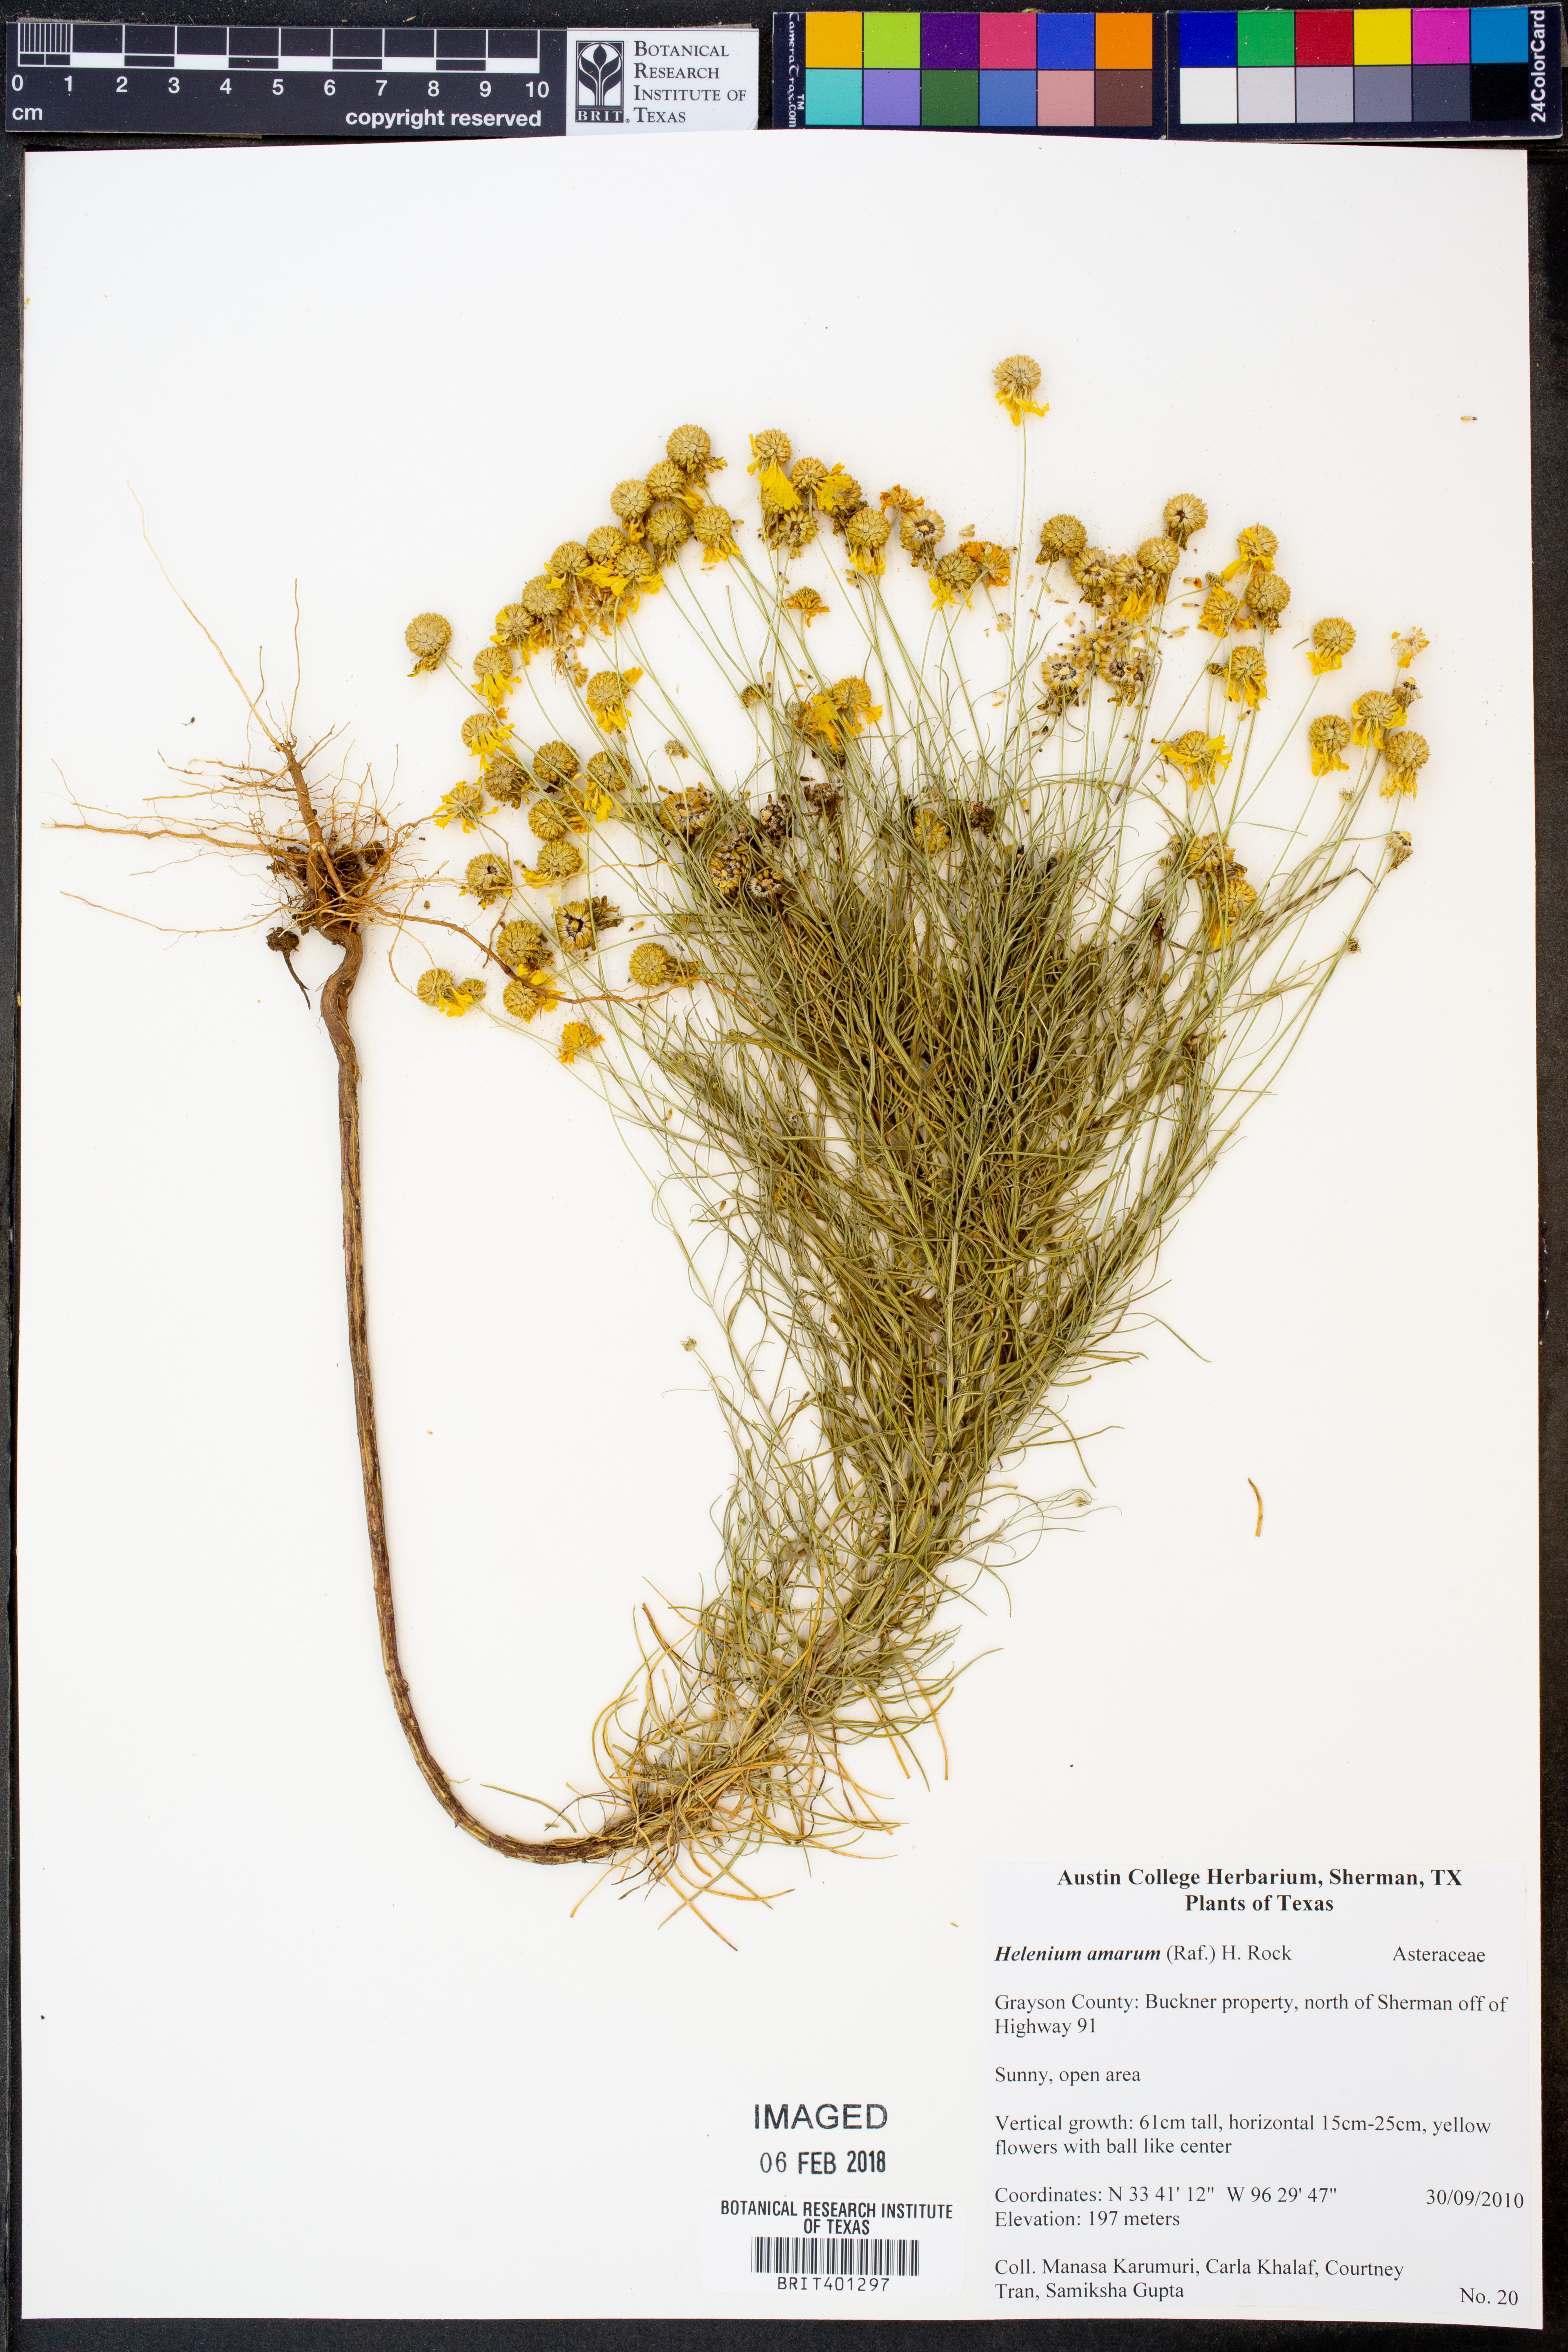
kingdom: Plantae
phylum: Tracheophyta
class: Magnoliopsida
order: Asterales
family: Asteraceae
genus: Helenium
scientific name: Helenium amarum
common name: Bitter sneezeweed
